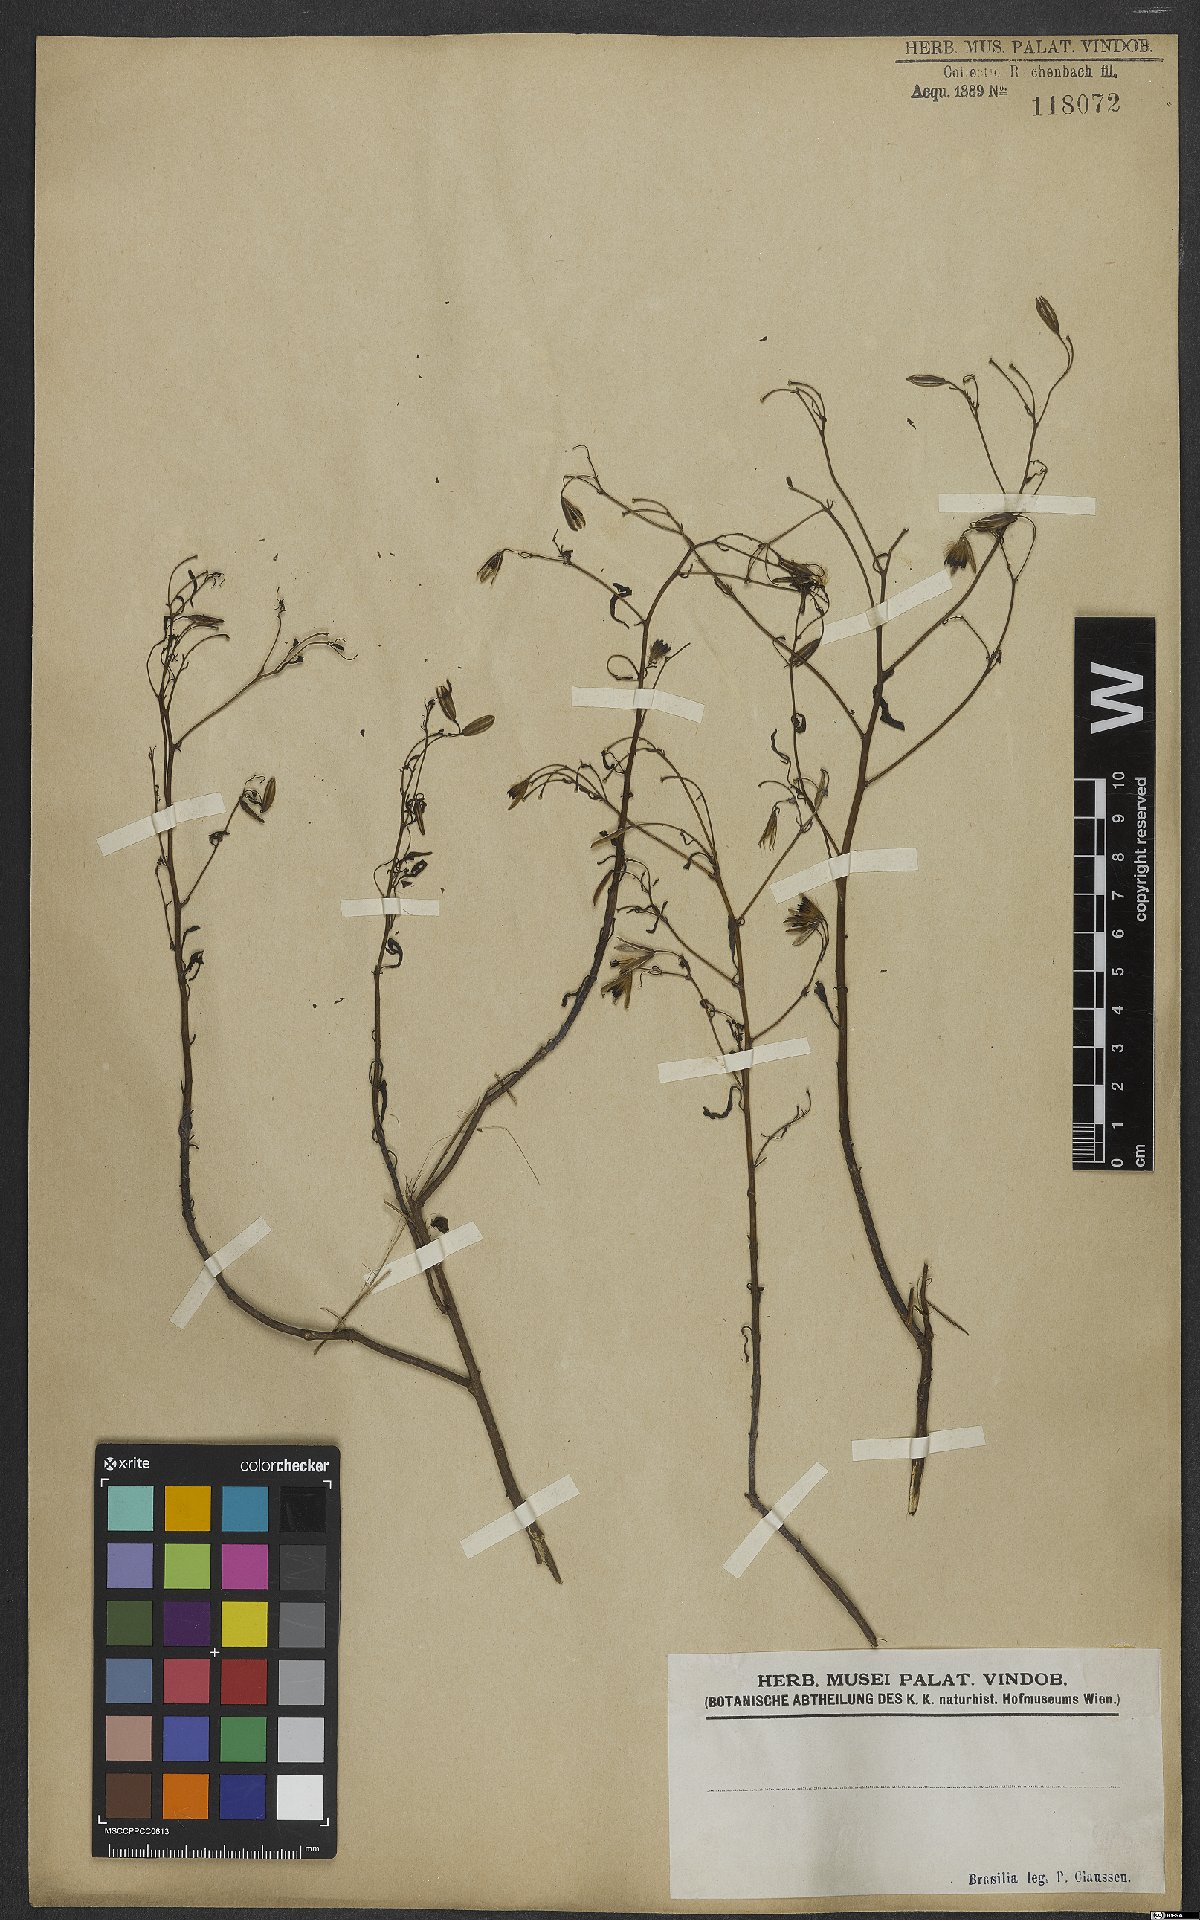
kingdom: Plantae
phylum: Tracheophyta
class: Magnoliopsida
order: Asterales
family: Asteraceae
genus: Porophyllum
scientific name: Porophyllum
